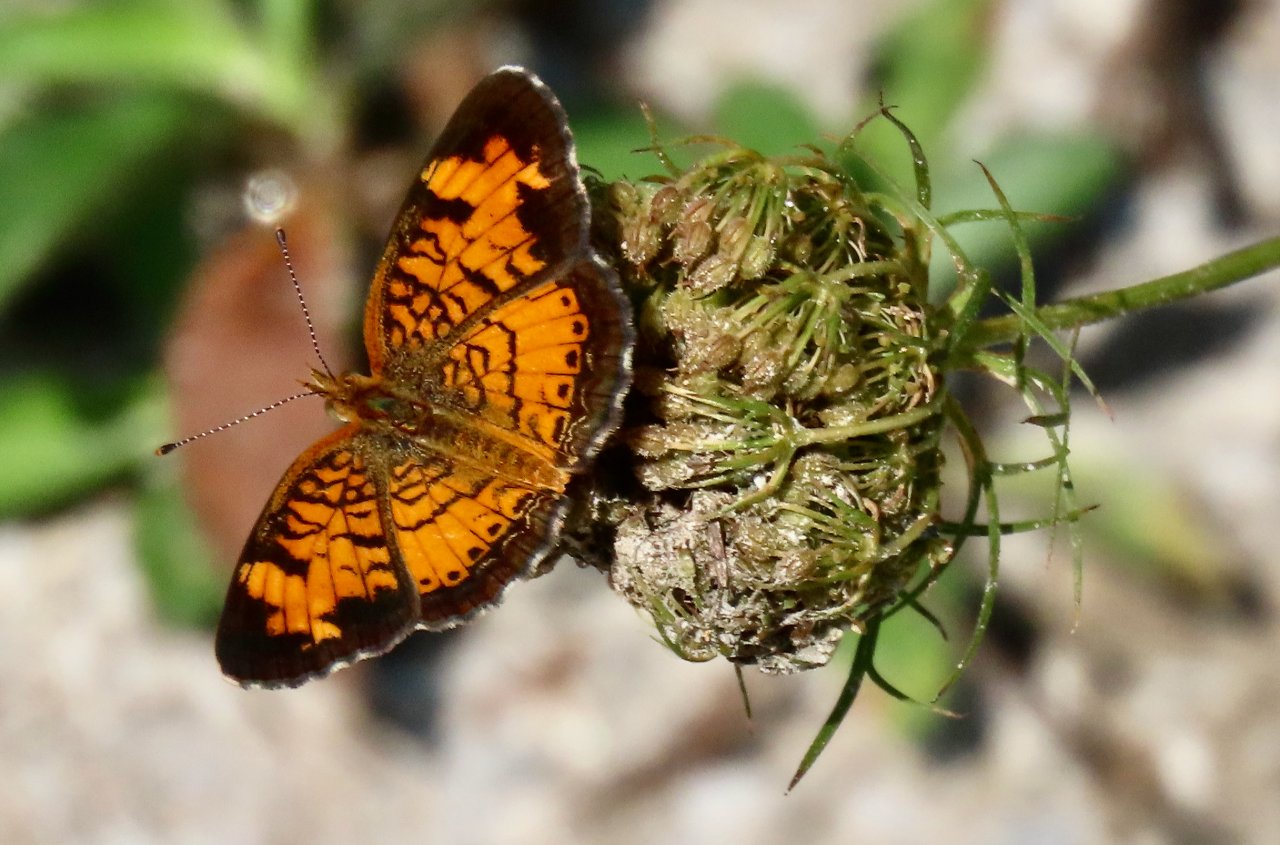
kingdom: Animalia
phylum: Arthropoda
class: Insecta
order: Lepidoptera
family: Nymphalidae
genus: Phyciodes
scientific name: Phyciodes tharos
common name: Pearl Crescent
